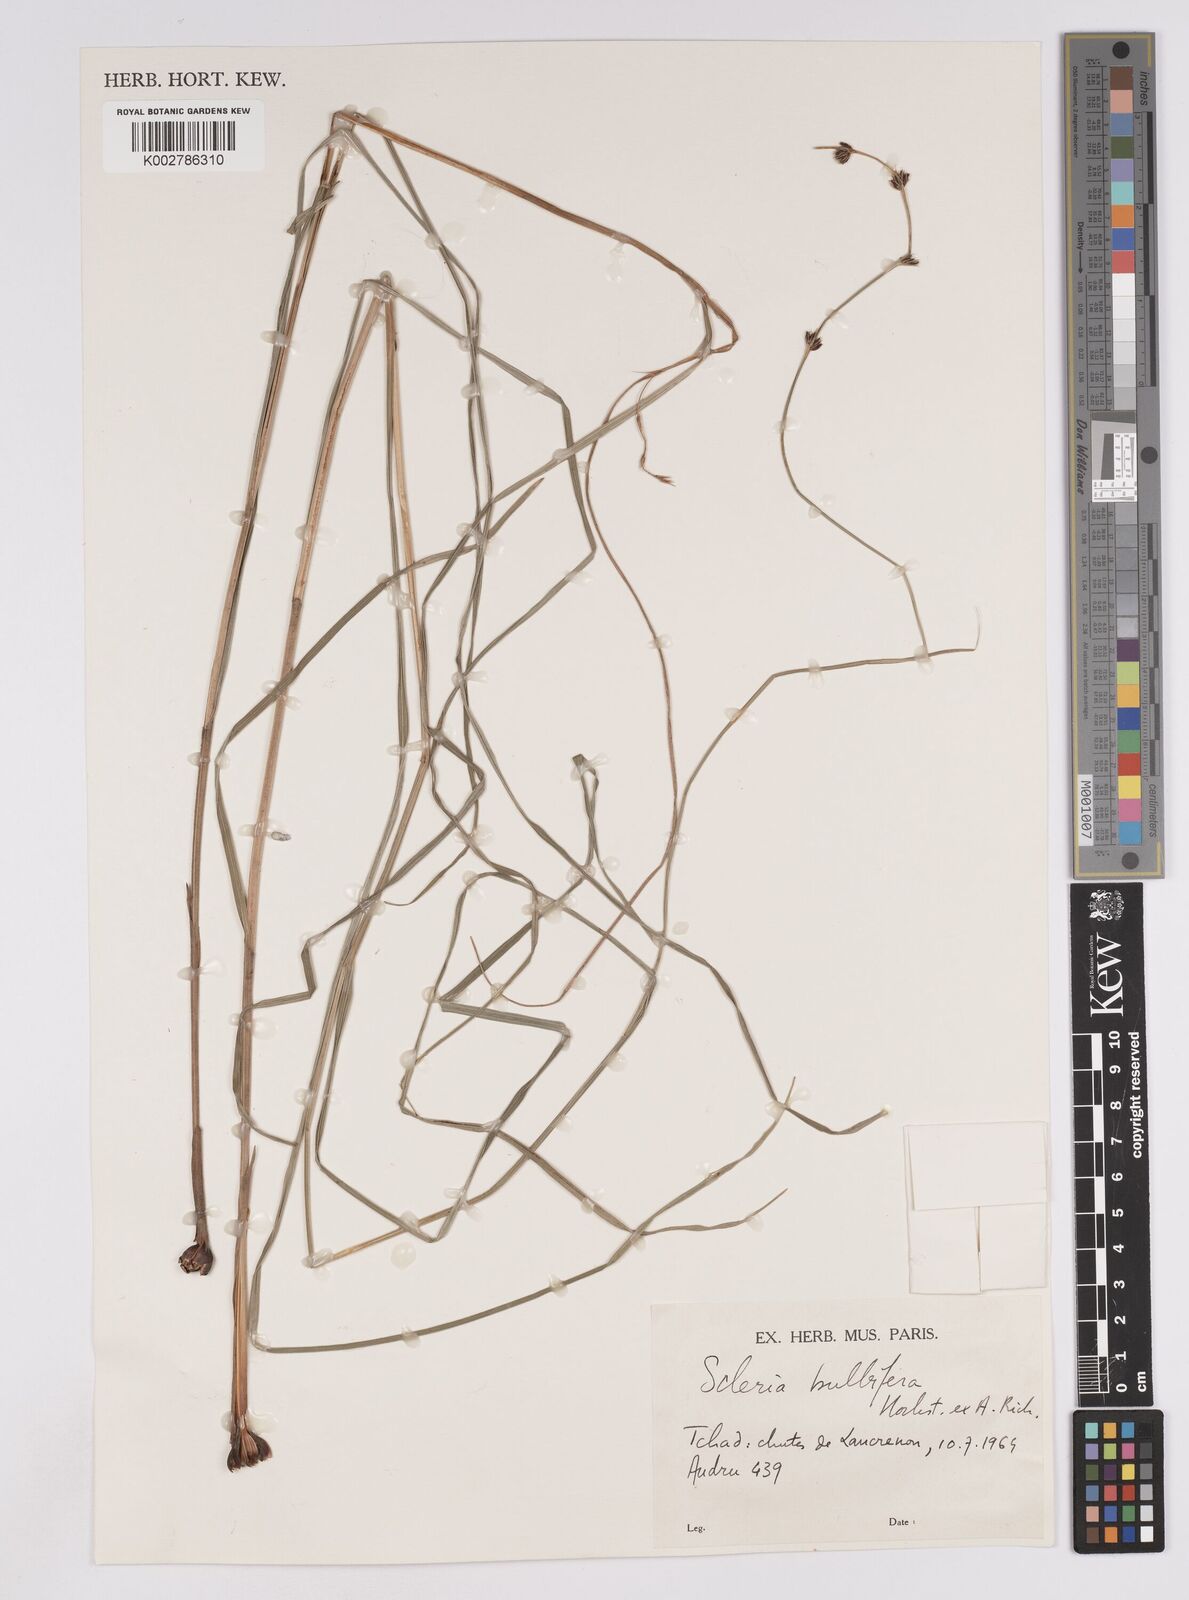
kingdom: Plantae
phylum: Tracheophyta
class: Liliopsida
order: Poales
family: Cyperaceae
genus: Scleria
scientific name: Scleria bulbifera
